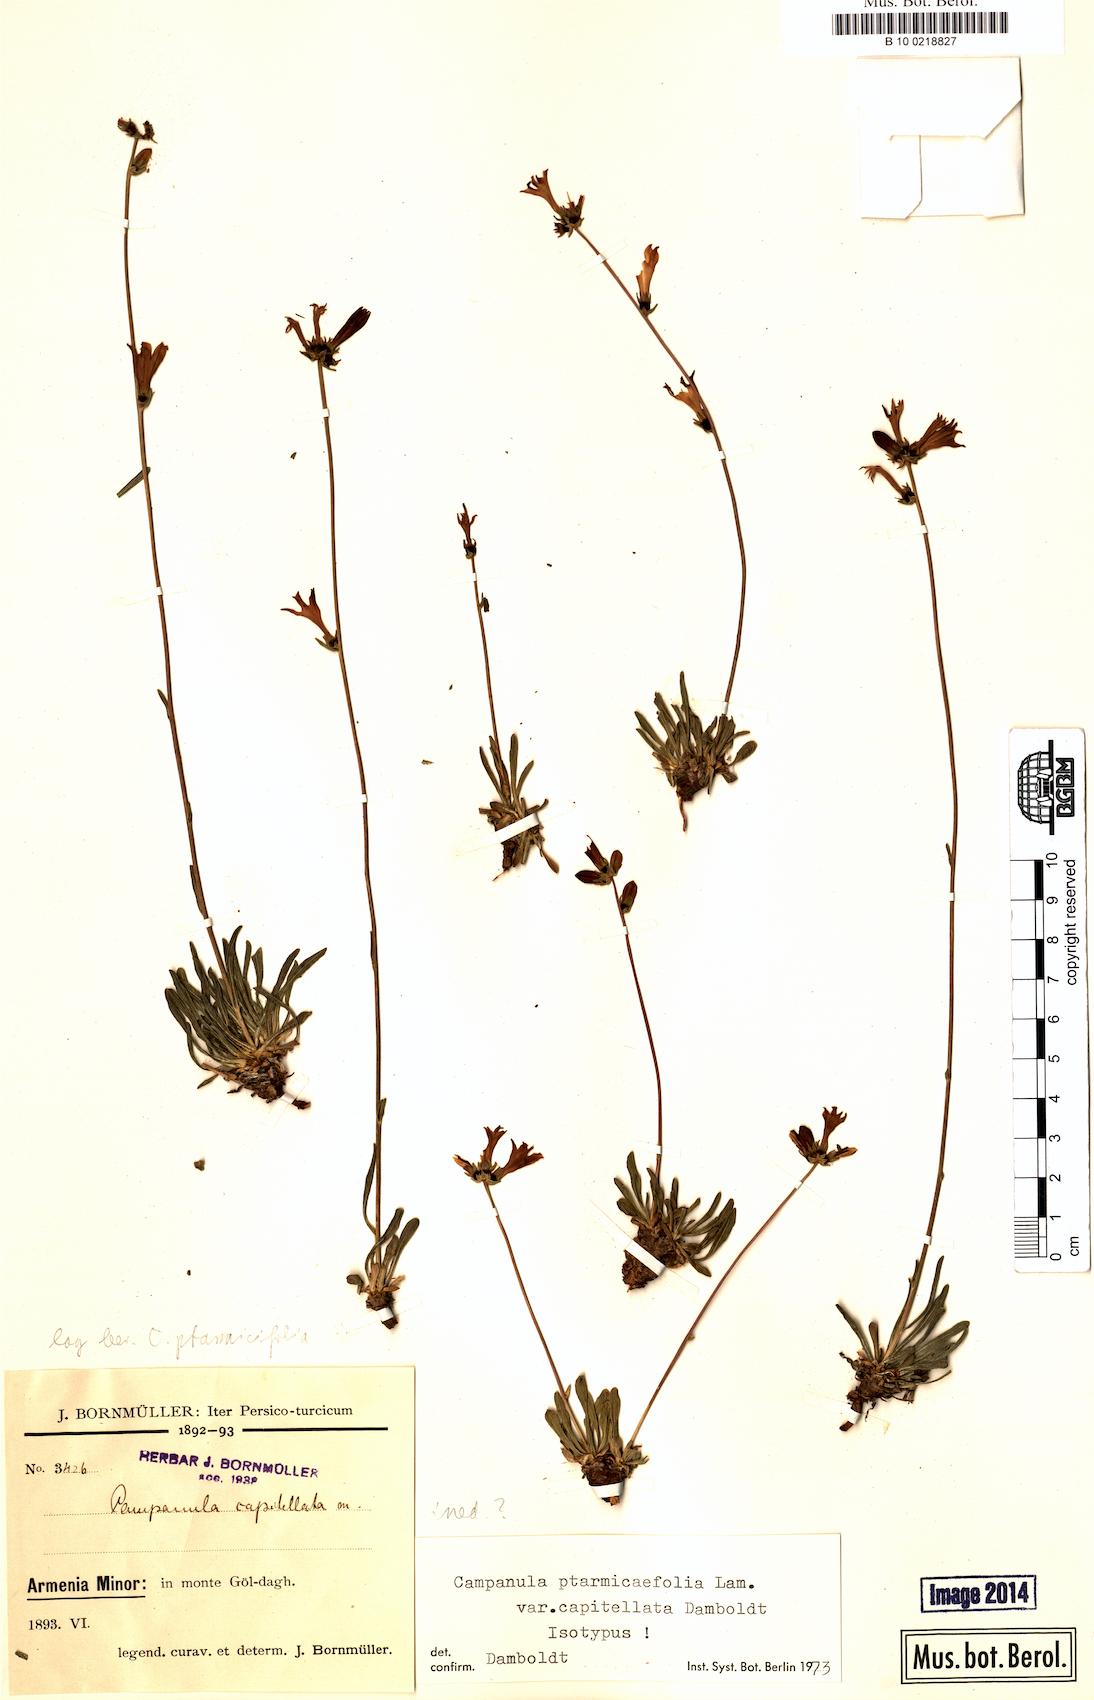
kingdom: Plantae
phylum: Tracheophyta
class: Magnoliopsida
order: Asterales
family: Campanulaceae
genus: Campanula
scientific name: Campanula ovacikensis
